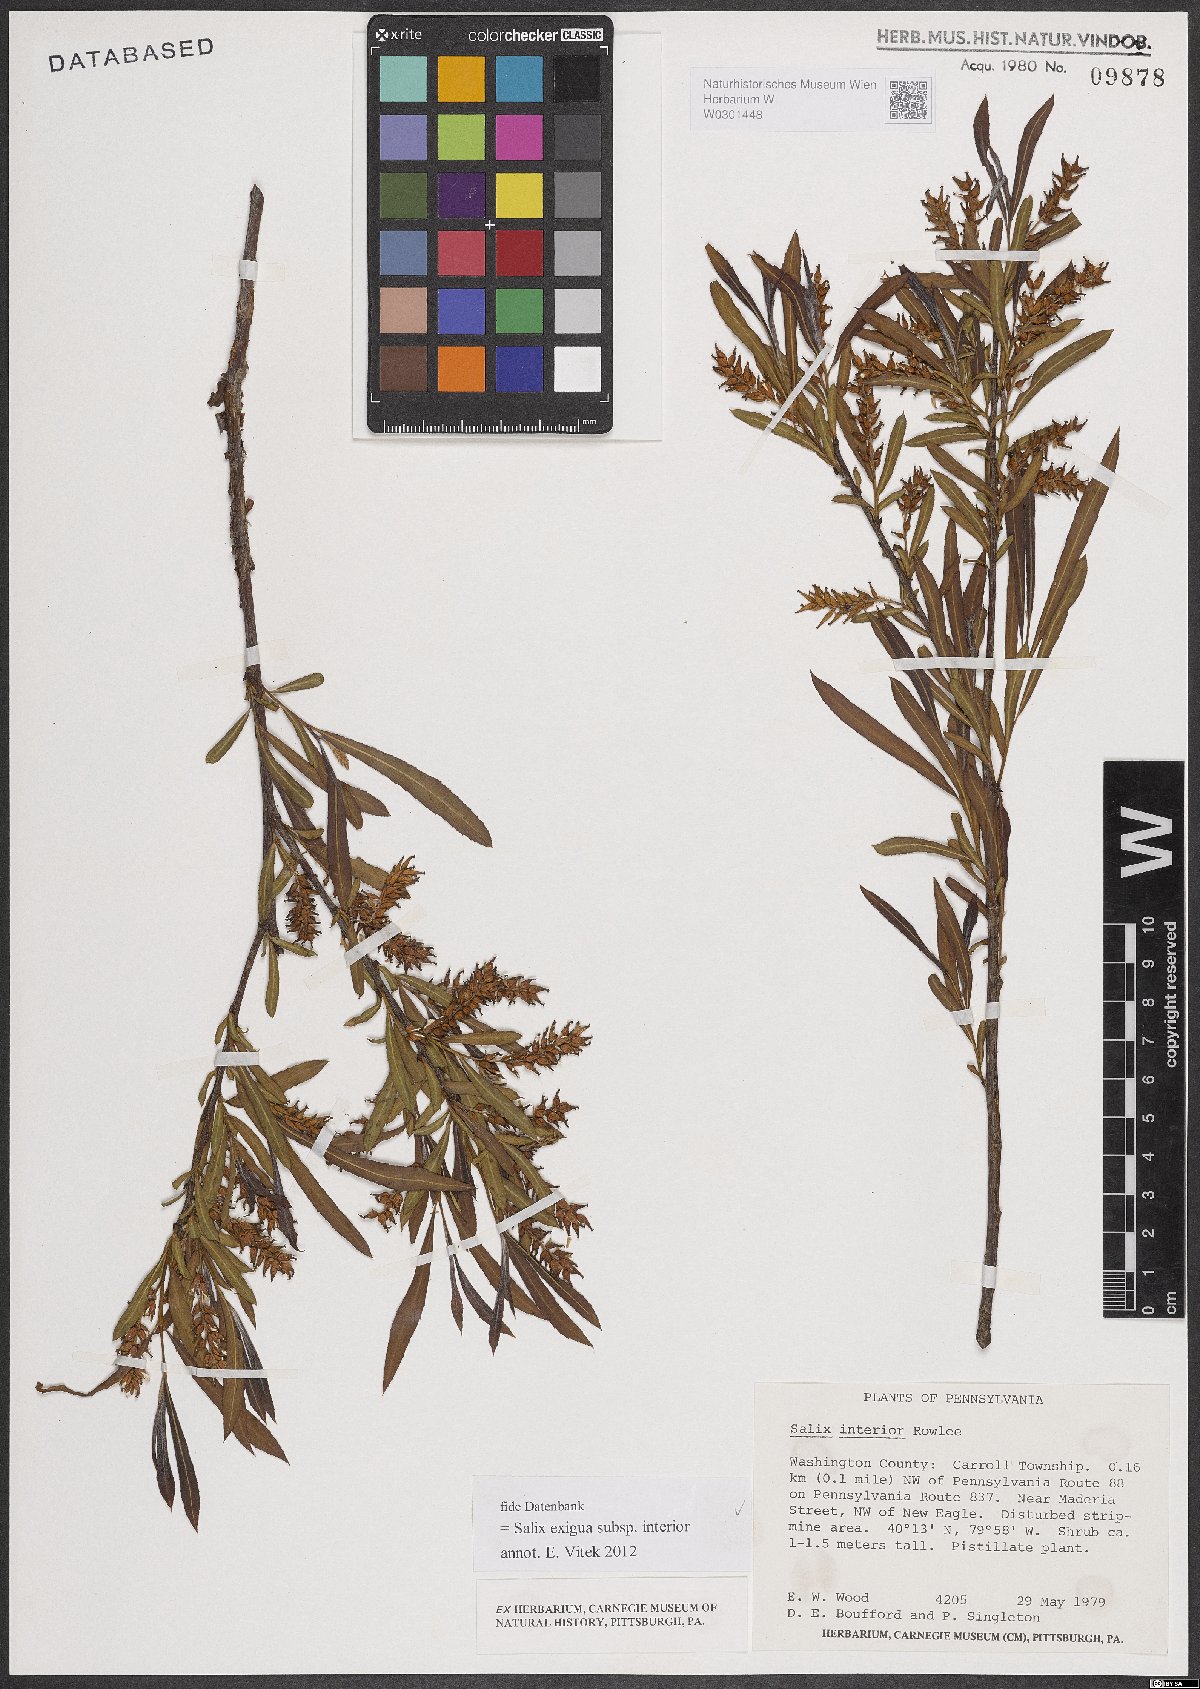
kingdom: Plantae
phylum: Tracheophyta
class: Magnoliopsida
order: Malpighiales
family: Salicaceae
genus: Salix
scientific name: Salix interior
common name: Sandbar willow
